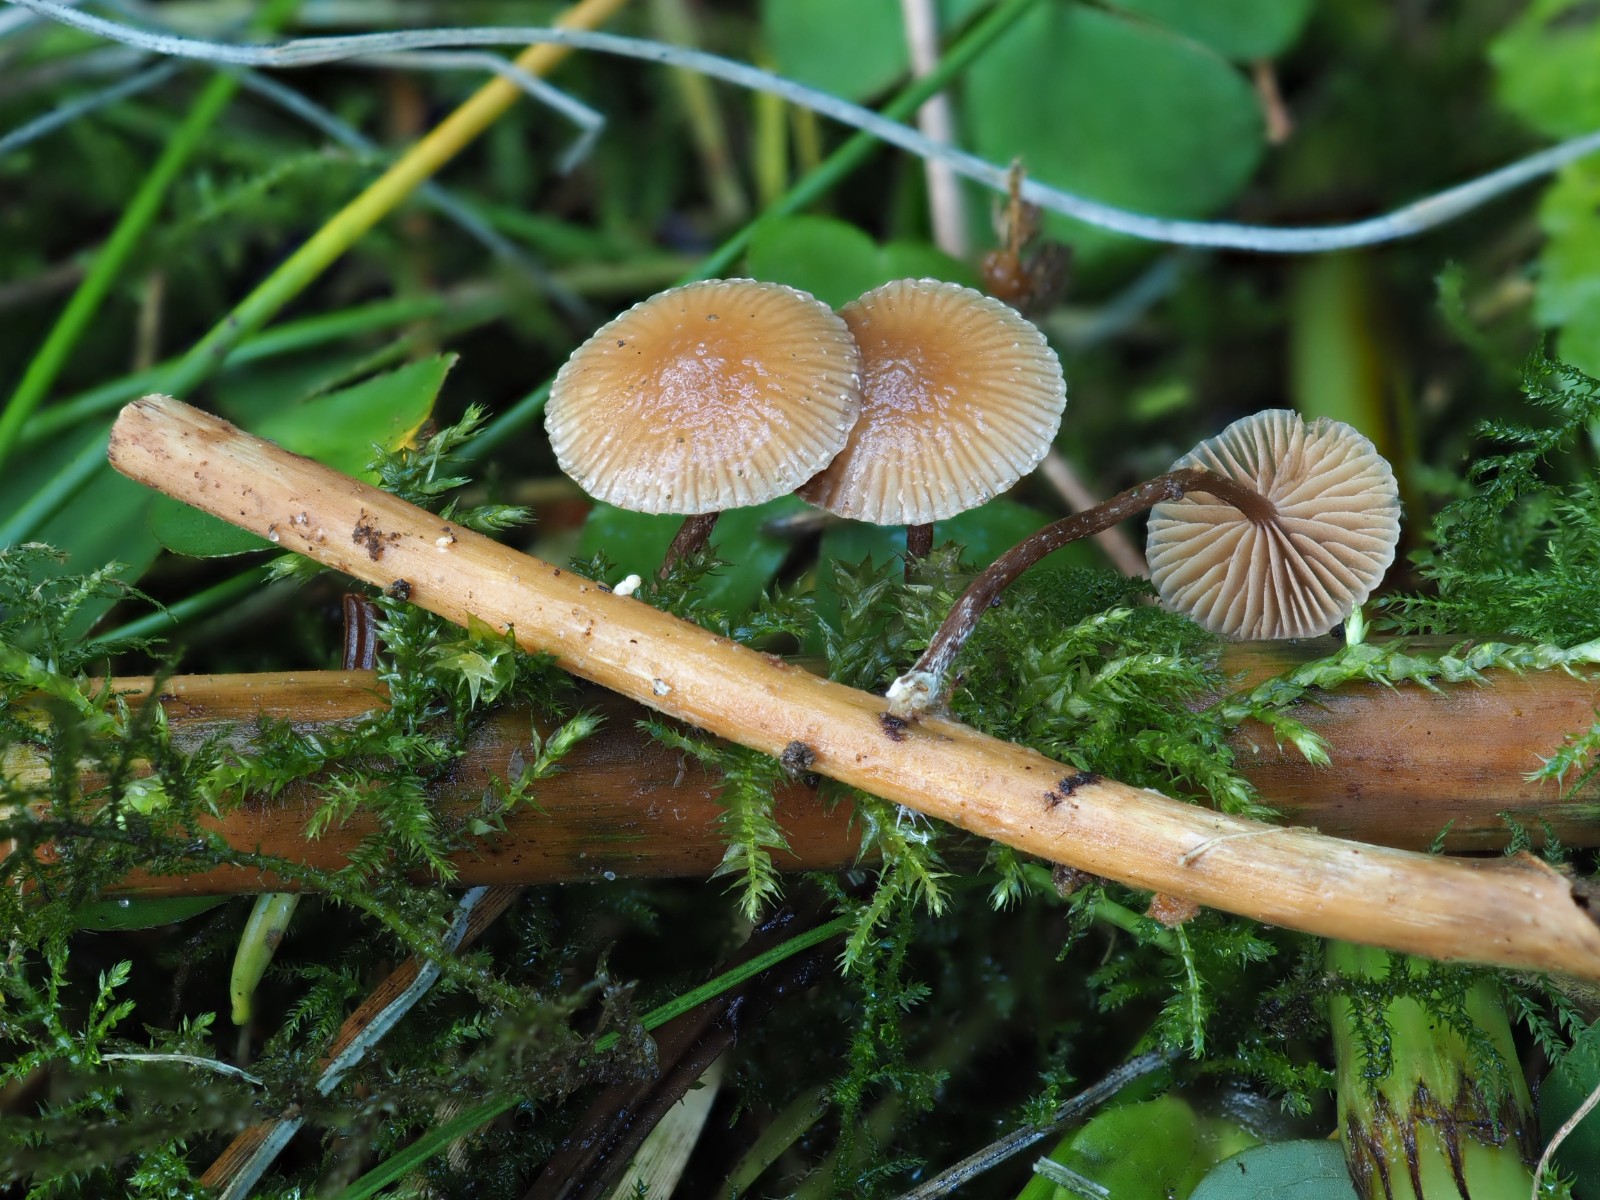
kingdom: Fungi
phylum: Basidiomycota
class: Agaricomycetes
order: Agaricales
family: Strophariaceae
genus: Deconica
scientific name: Deconica crobula
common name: træflis-stråhat
